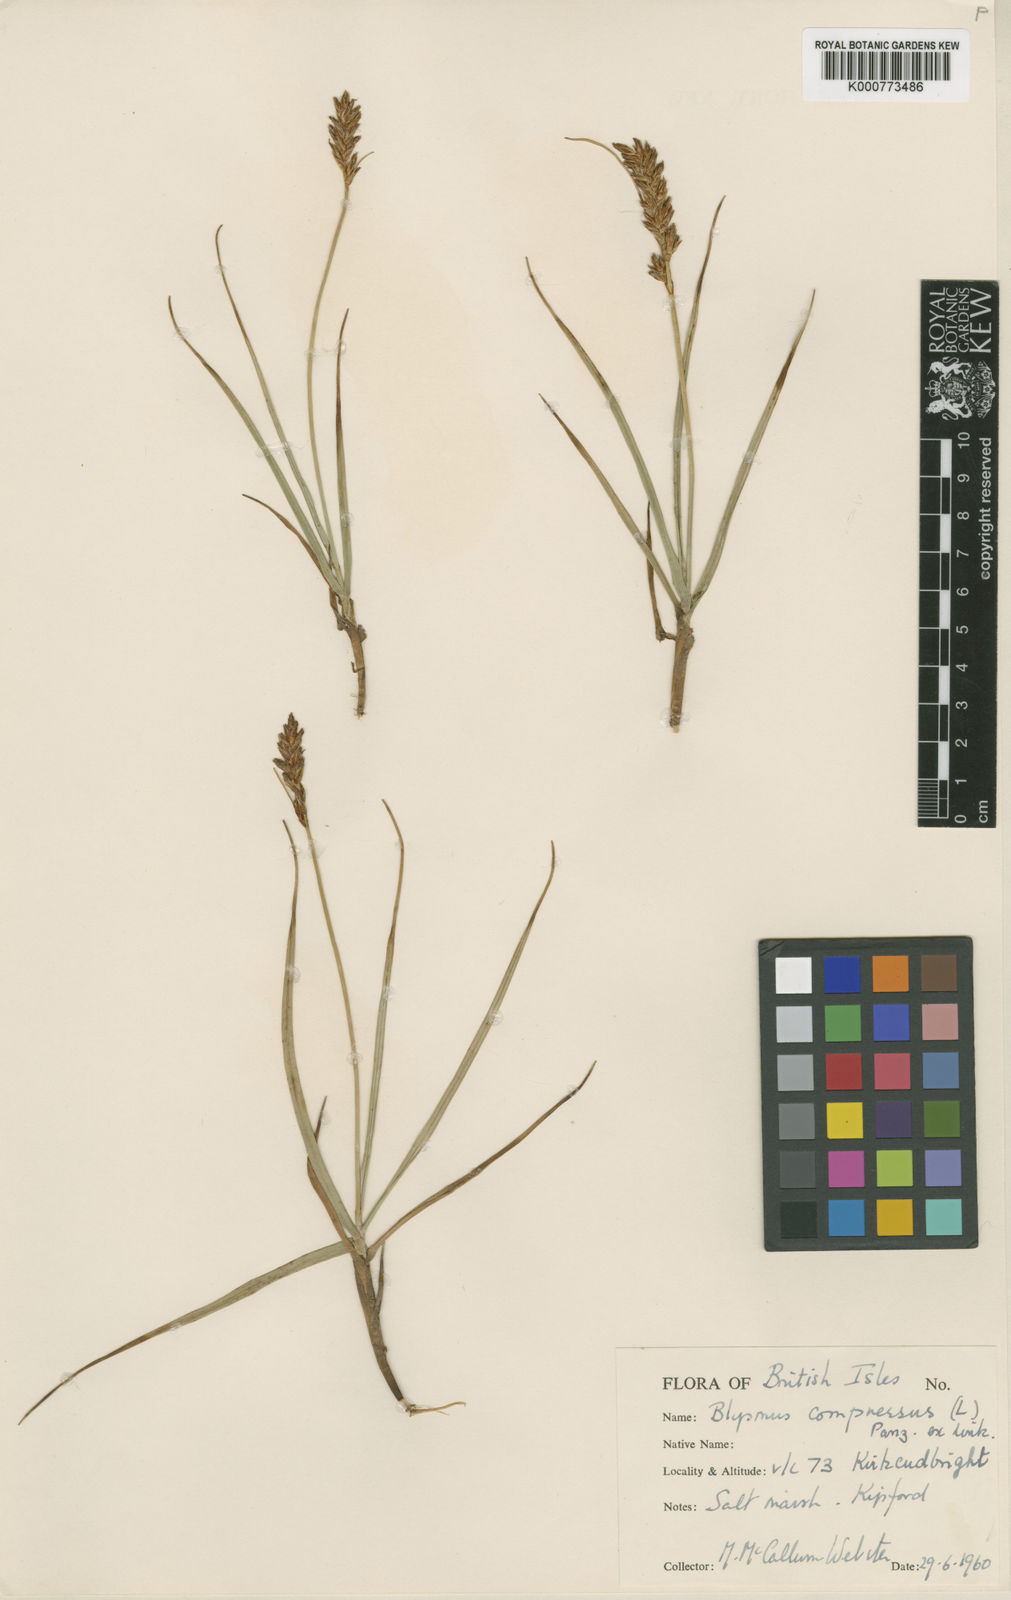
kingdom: Plantae
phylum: Tracheophyta
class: Liliopsida
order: Poales
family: Cyperaceae
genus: Blysmus
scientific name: Blysmus compressus
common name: Flat-sedge
